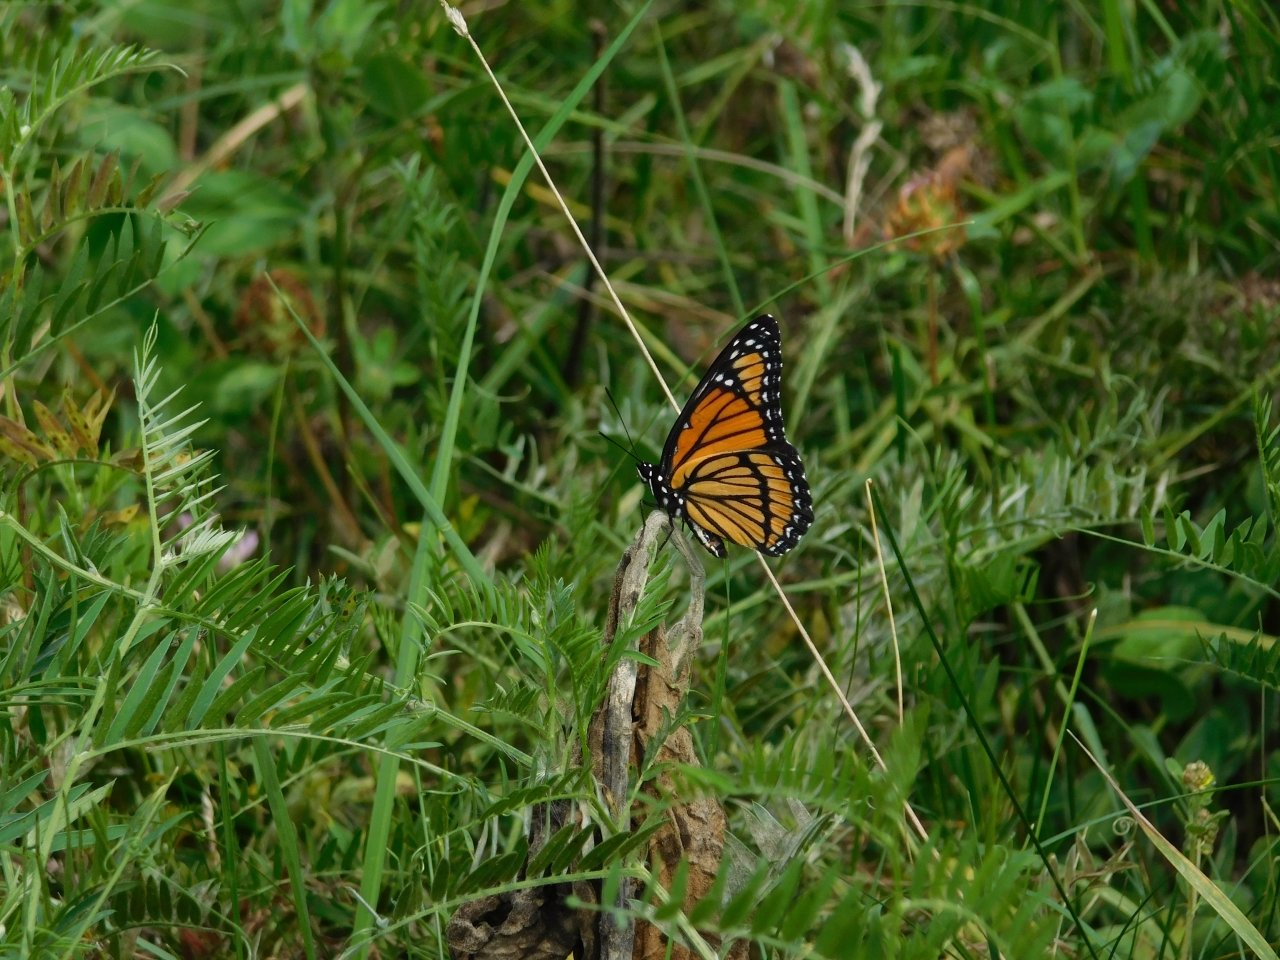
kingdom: Animalia
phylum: Arthropoda
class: Insecta
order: Lepidoptera
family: Nymphalidae
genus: Limenitis
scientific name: Limenitis archippus
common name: Viceroy
